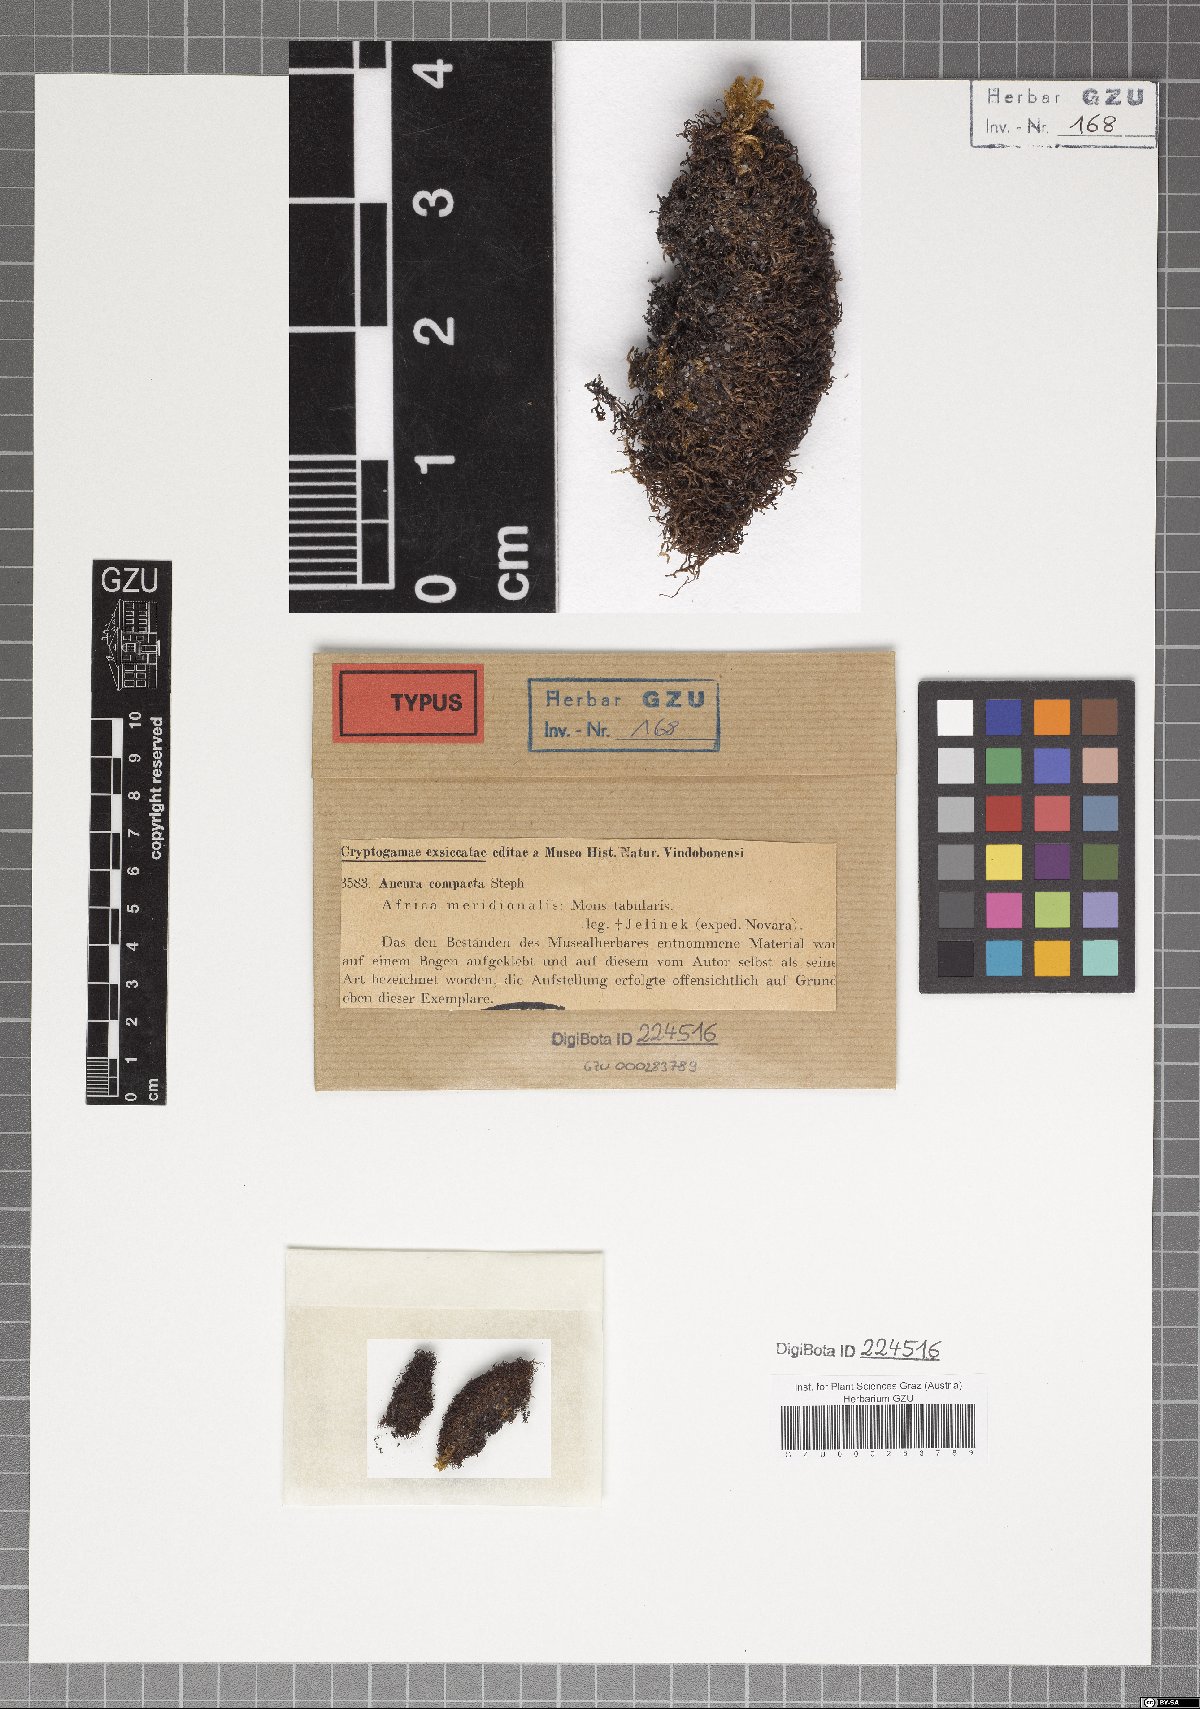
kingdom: Plantae
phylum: Marchantiophyta
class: Jungermanniopsida
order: Metzgeriales
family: Aneuraceae
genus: Riccardia
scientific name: Riccardia ramosissima
